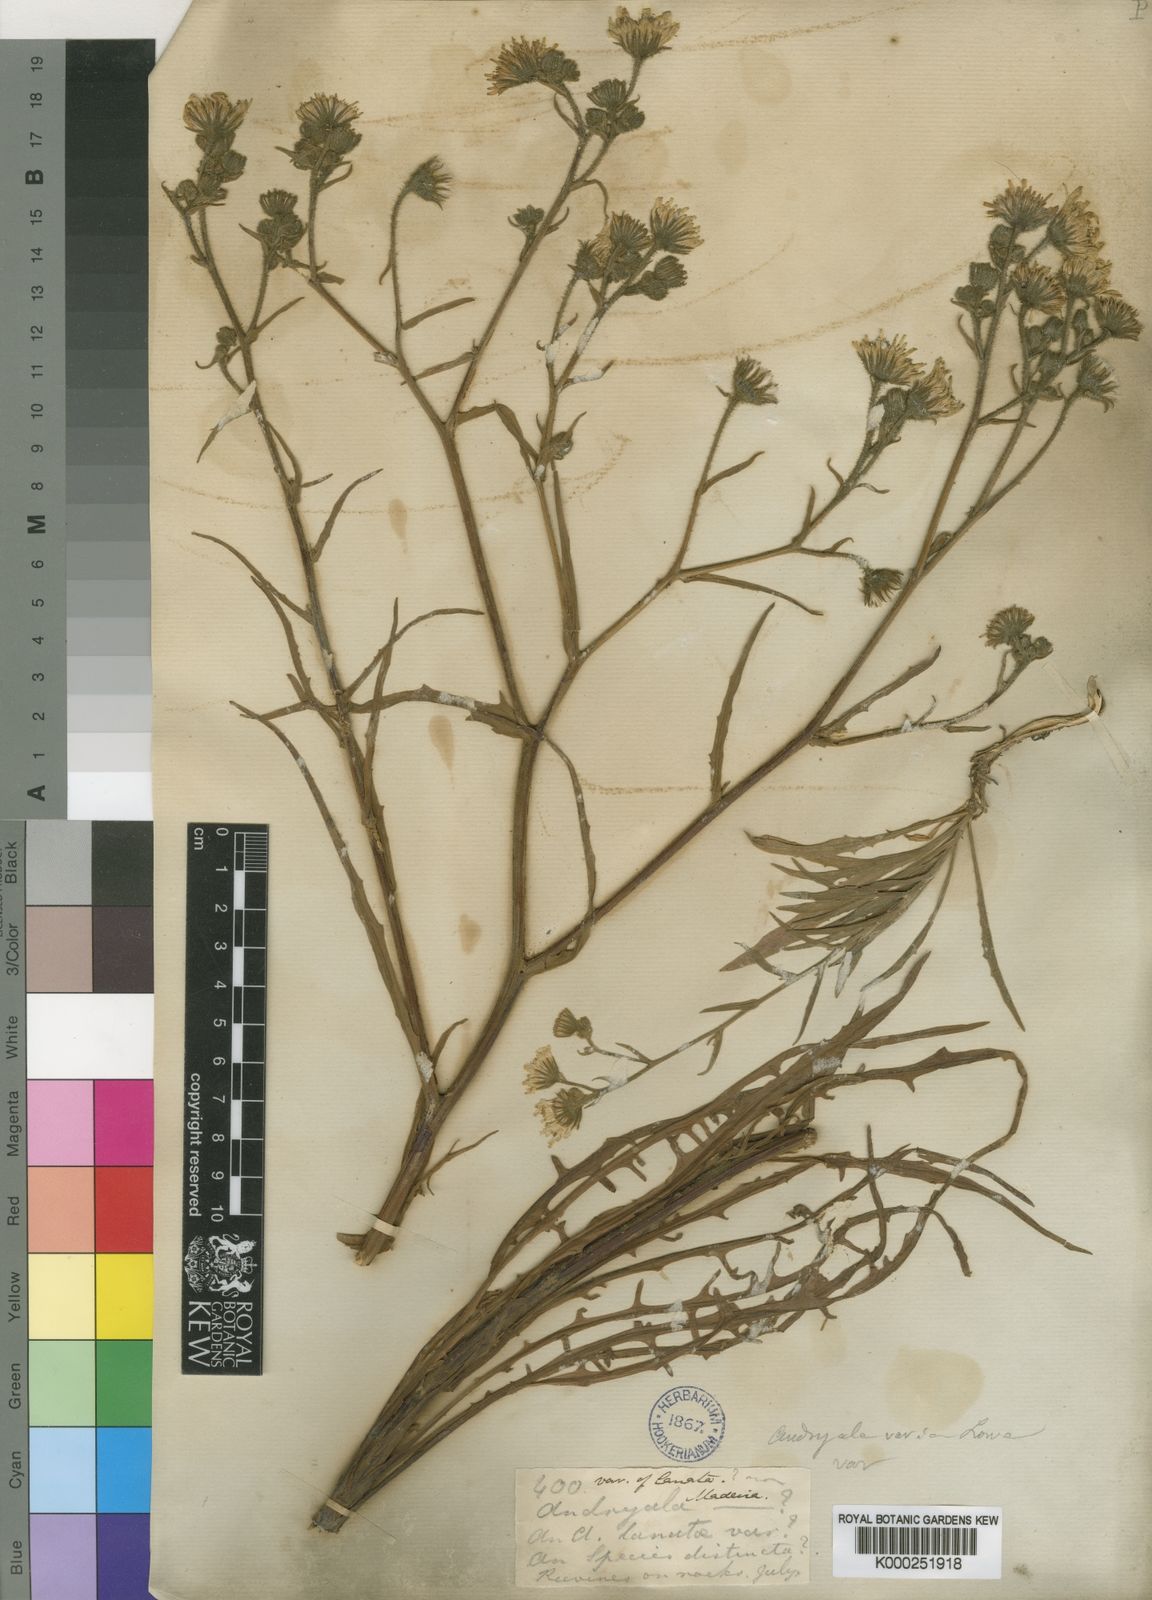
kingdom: Plantae
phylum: Tracheophyta
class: Magnoliopsida
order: Asterales
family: Asteraceae
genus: Andryala
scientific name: Andryala glandulosa
